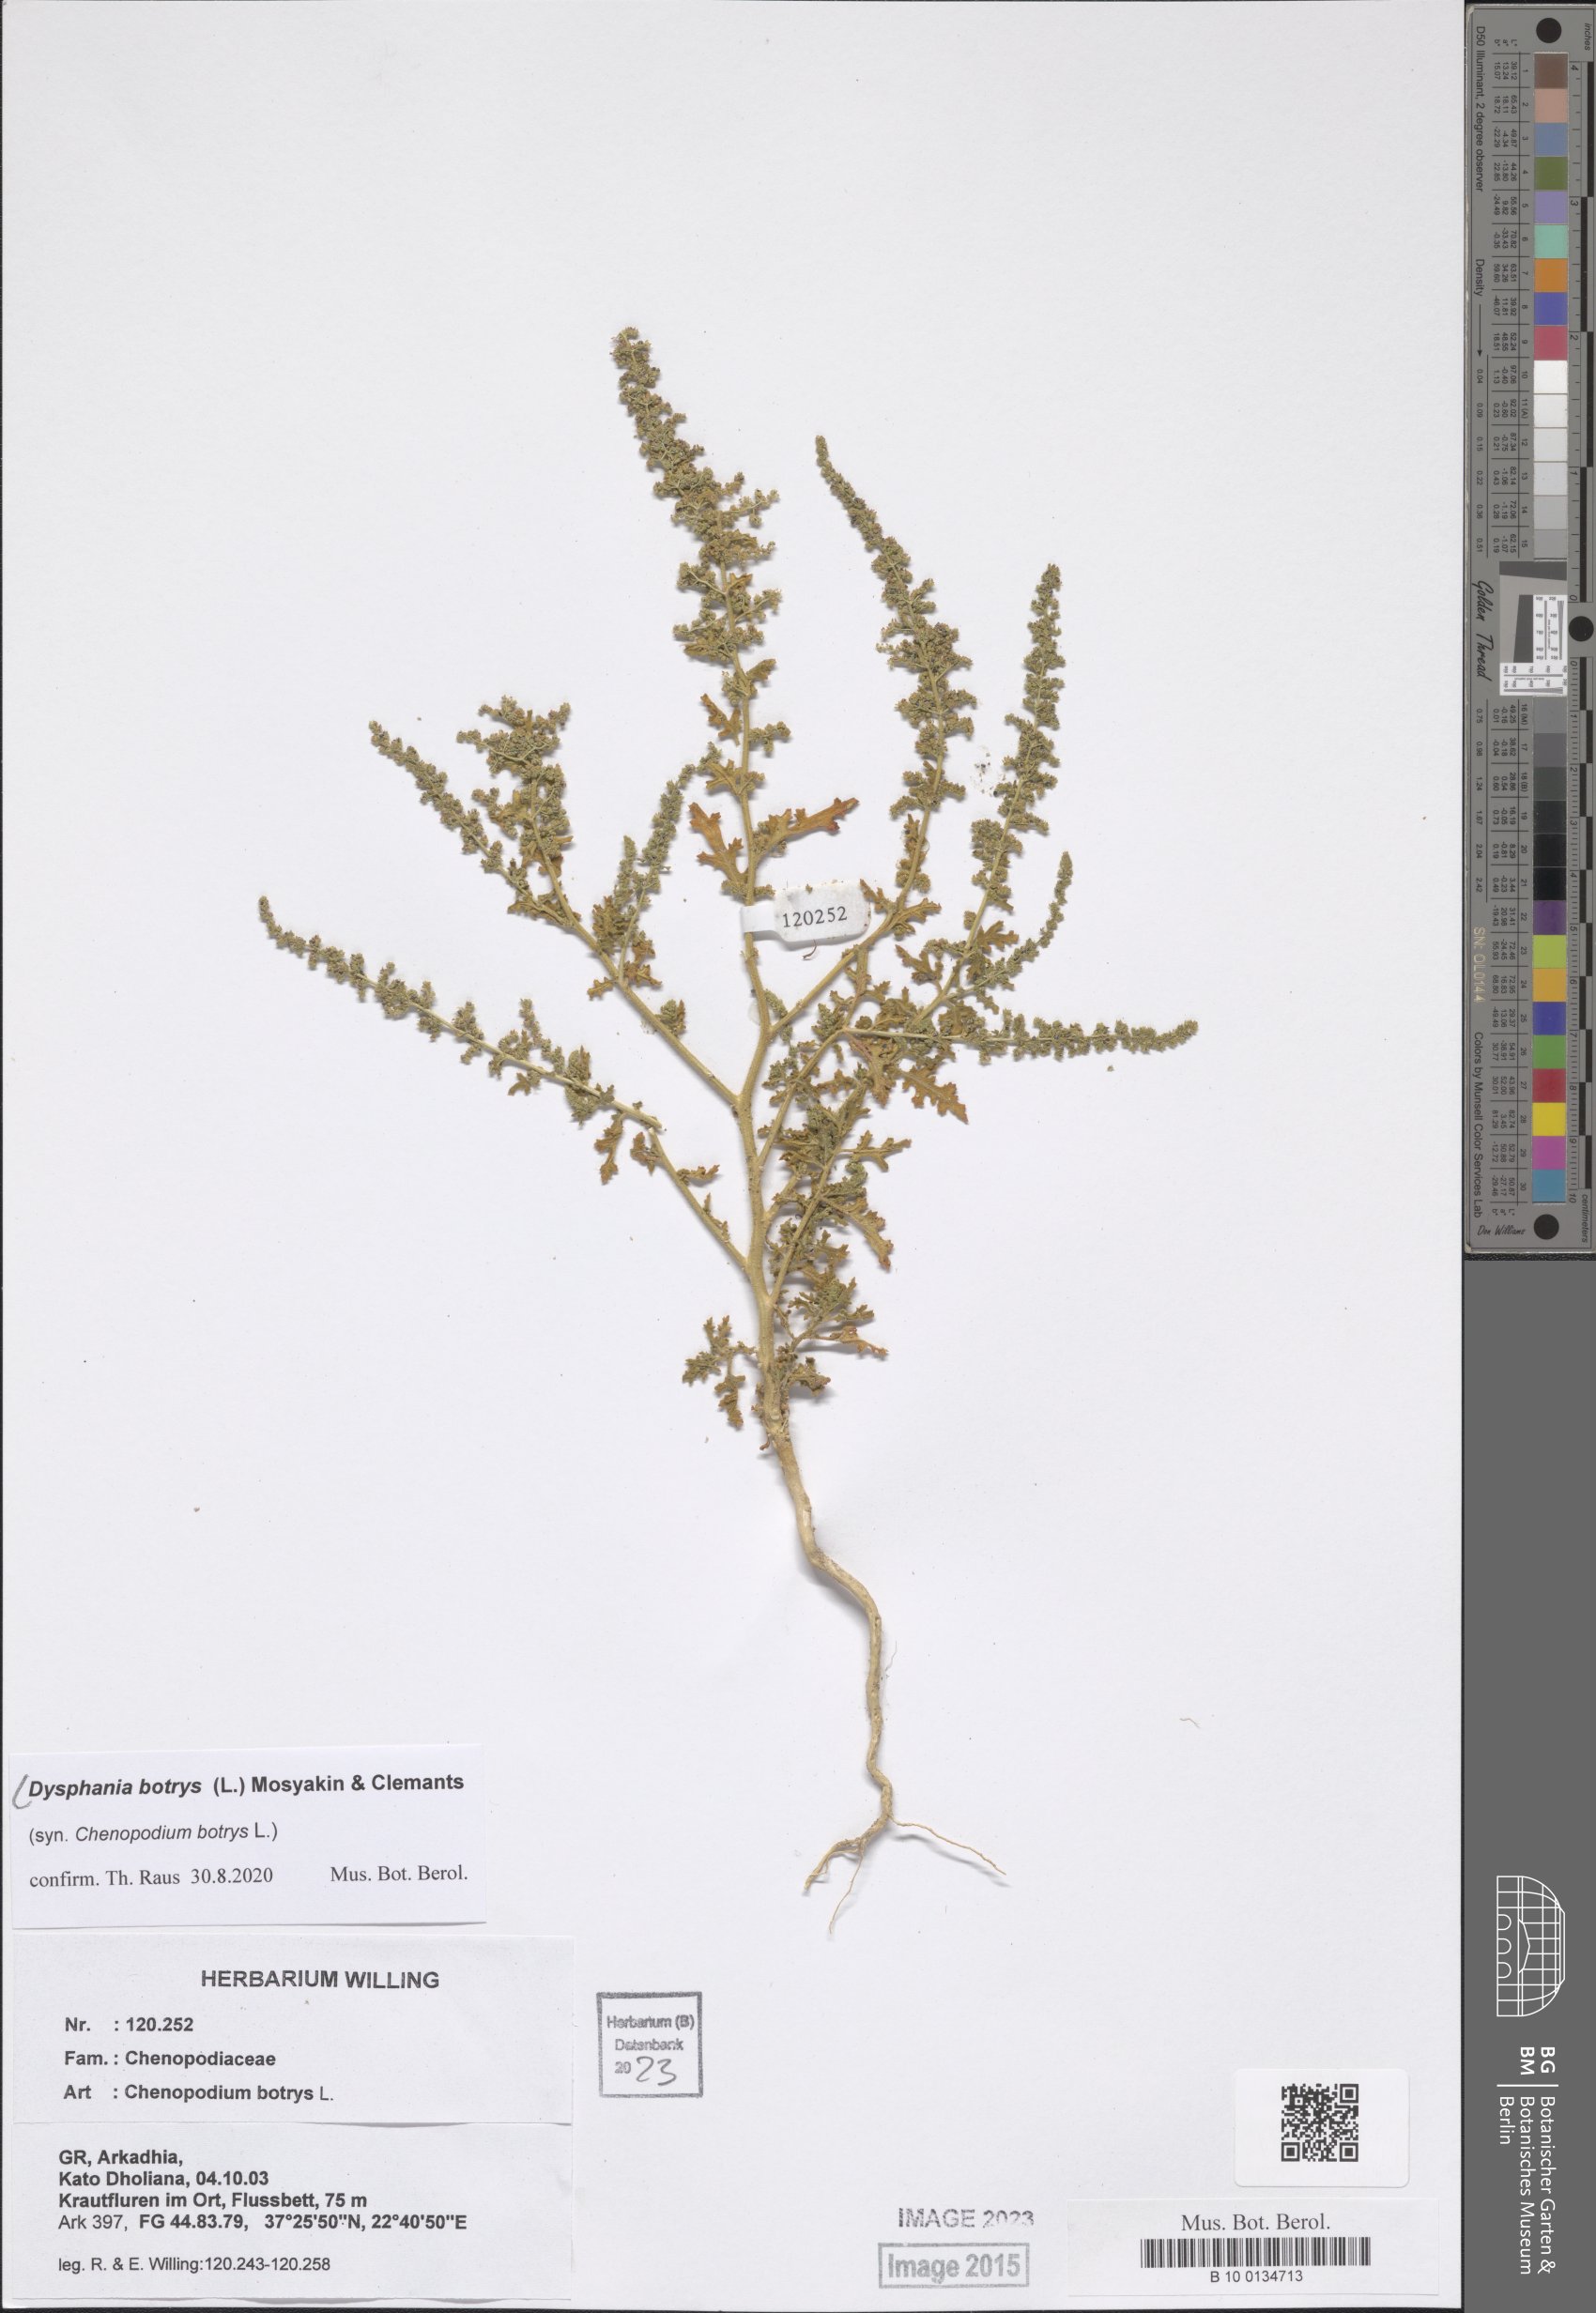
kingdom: Plantae
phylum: Tracheophyta
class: Magnoliopsida
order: Caryophyllales
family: Amaranthaceae
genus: Dysphania
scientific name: Dysphania botrys
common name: Feather-geranium
